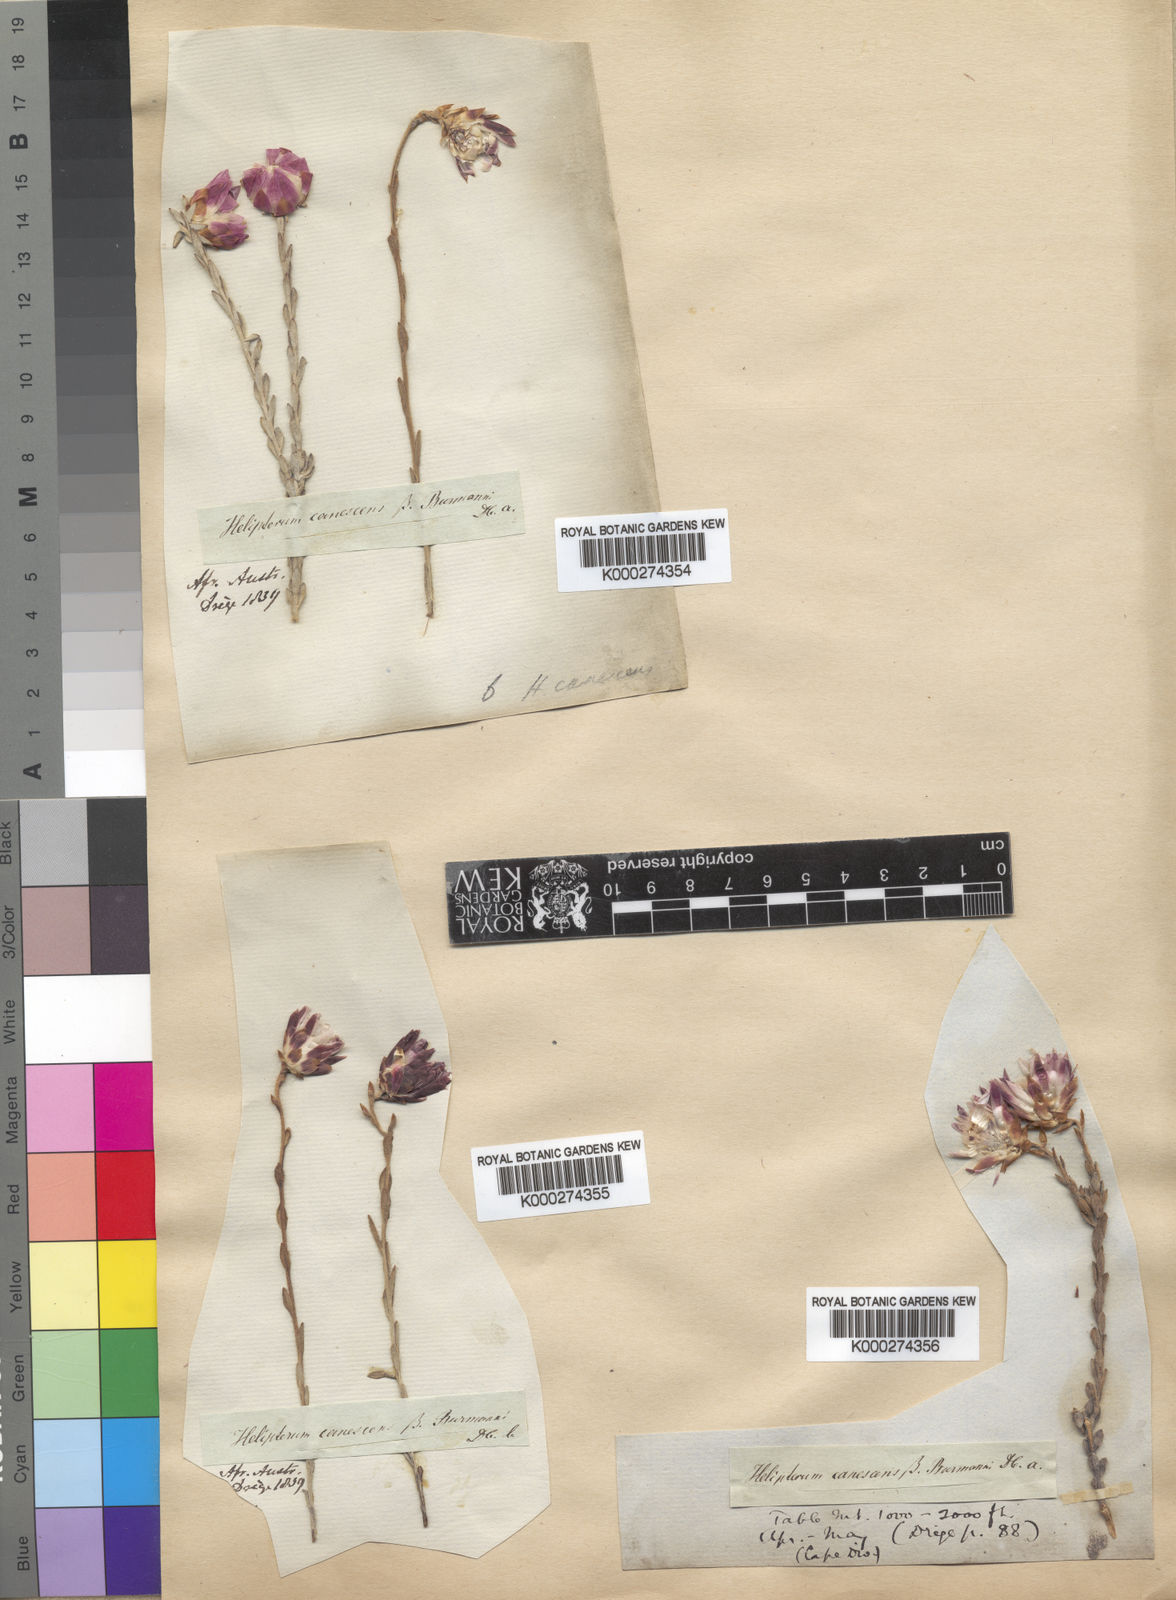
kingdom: Plantae
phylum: Tracheophyta
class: Magnoliopsida
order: Asterales
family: Asteraceae
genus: Syncarpha
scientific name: Syncarpha canescens
